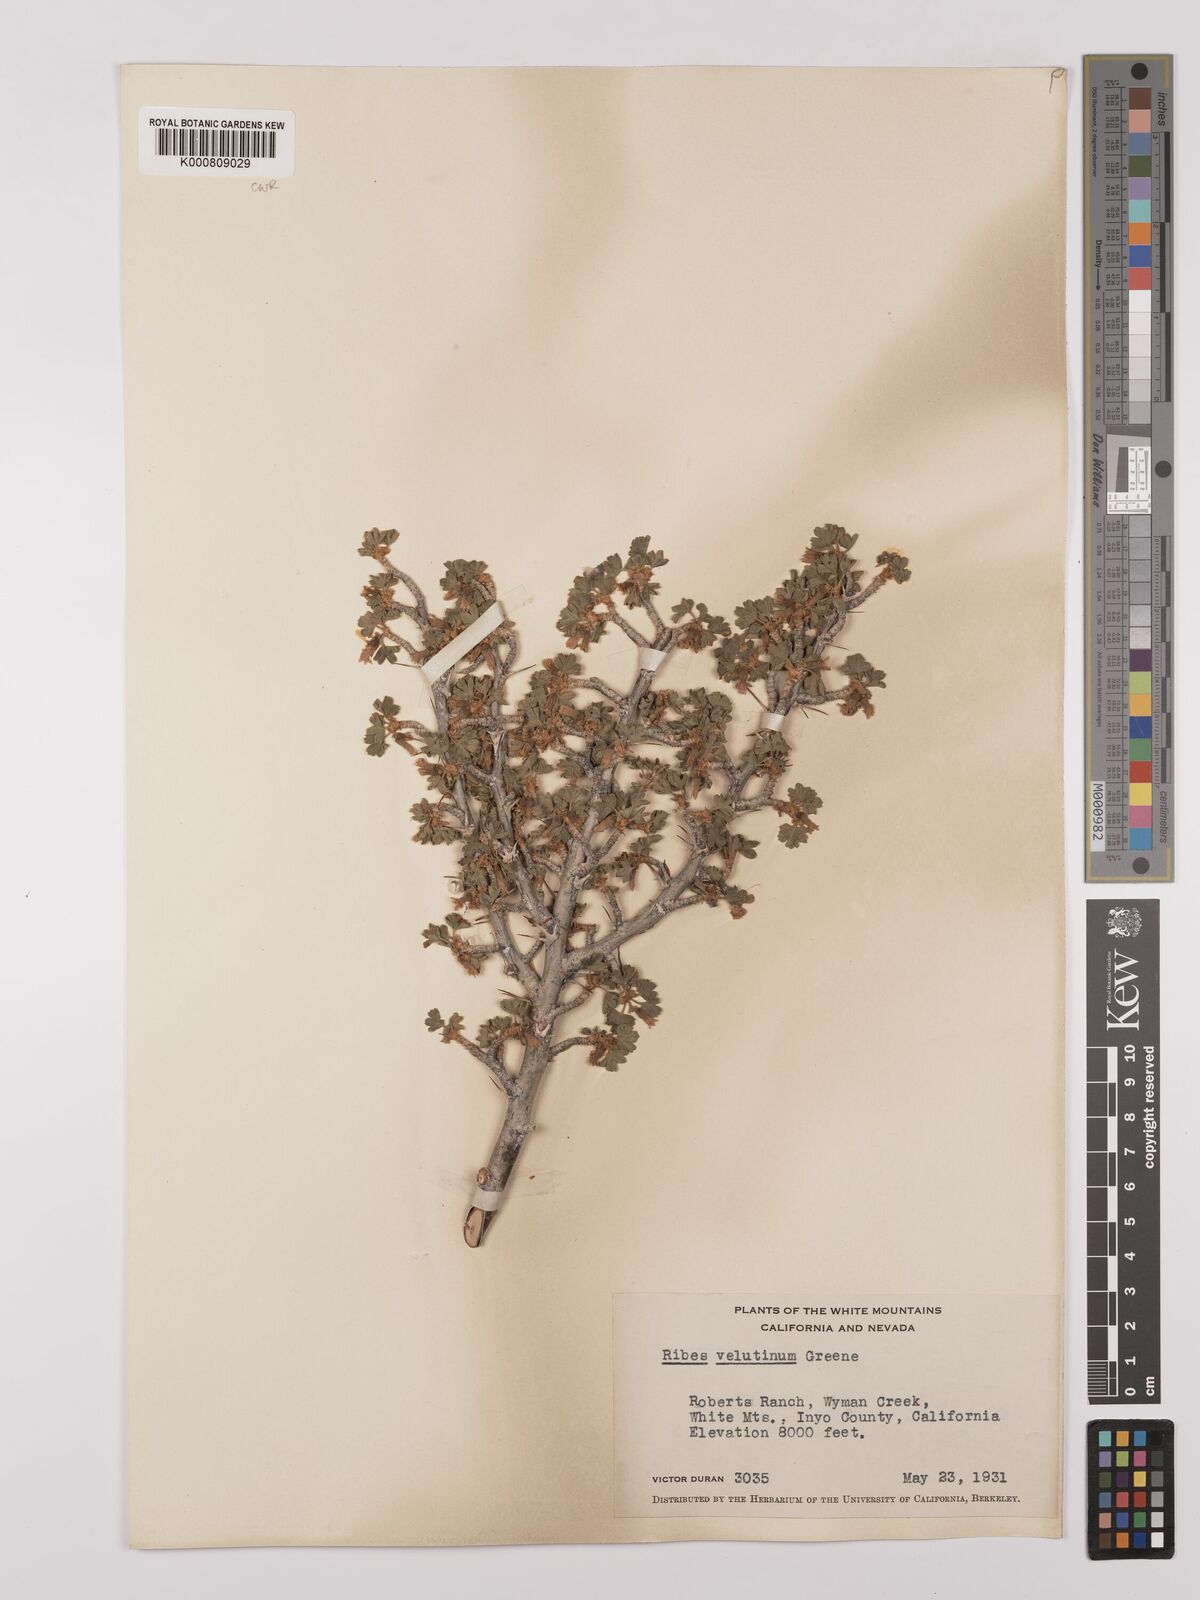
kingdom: Plantae
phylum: Tracheophyta
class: Magnoliopsida
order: Saxifragales
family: Grossulariaceae
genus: Ribes
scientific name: Ribes velutinum
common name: Desert gooseberry
